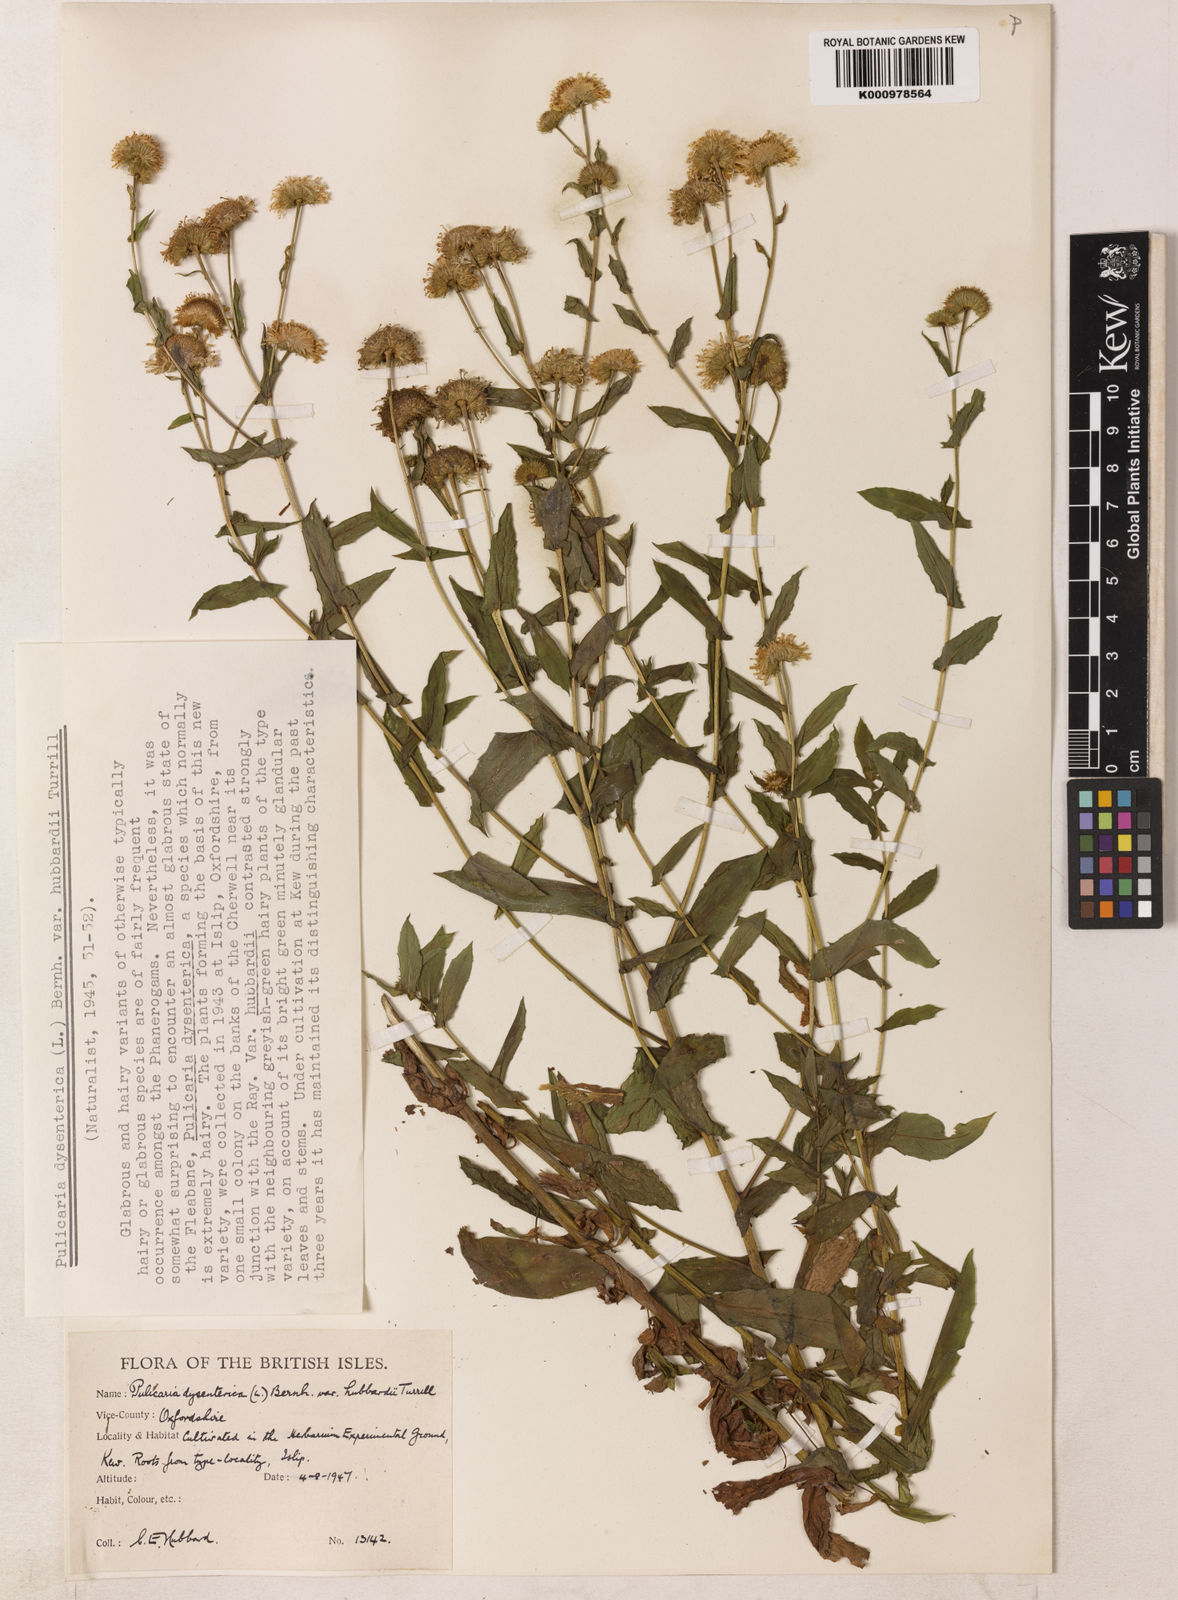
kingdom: Plantae
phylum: Tracheophyta
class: Magnoliopsida
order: Asterales
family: Asteraceae
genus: Pulicaria
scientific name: Pulicaria dysenterica
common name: Common fleabane
